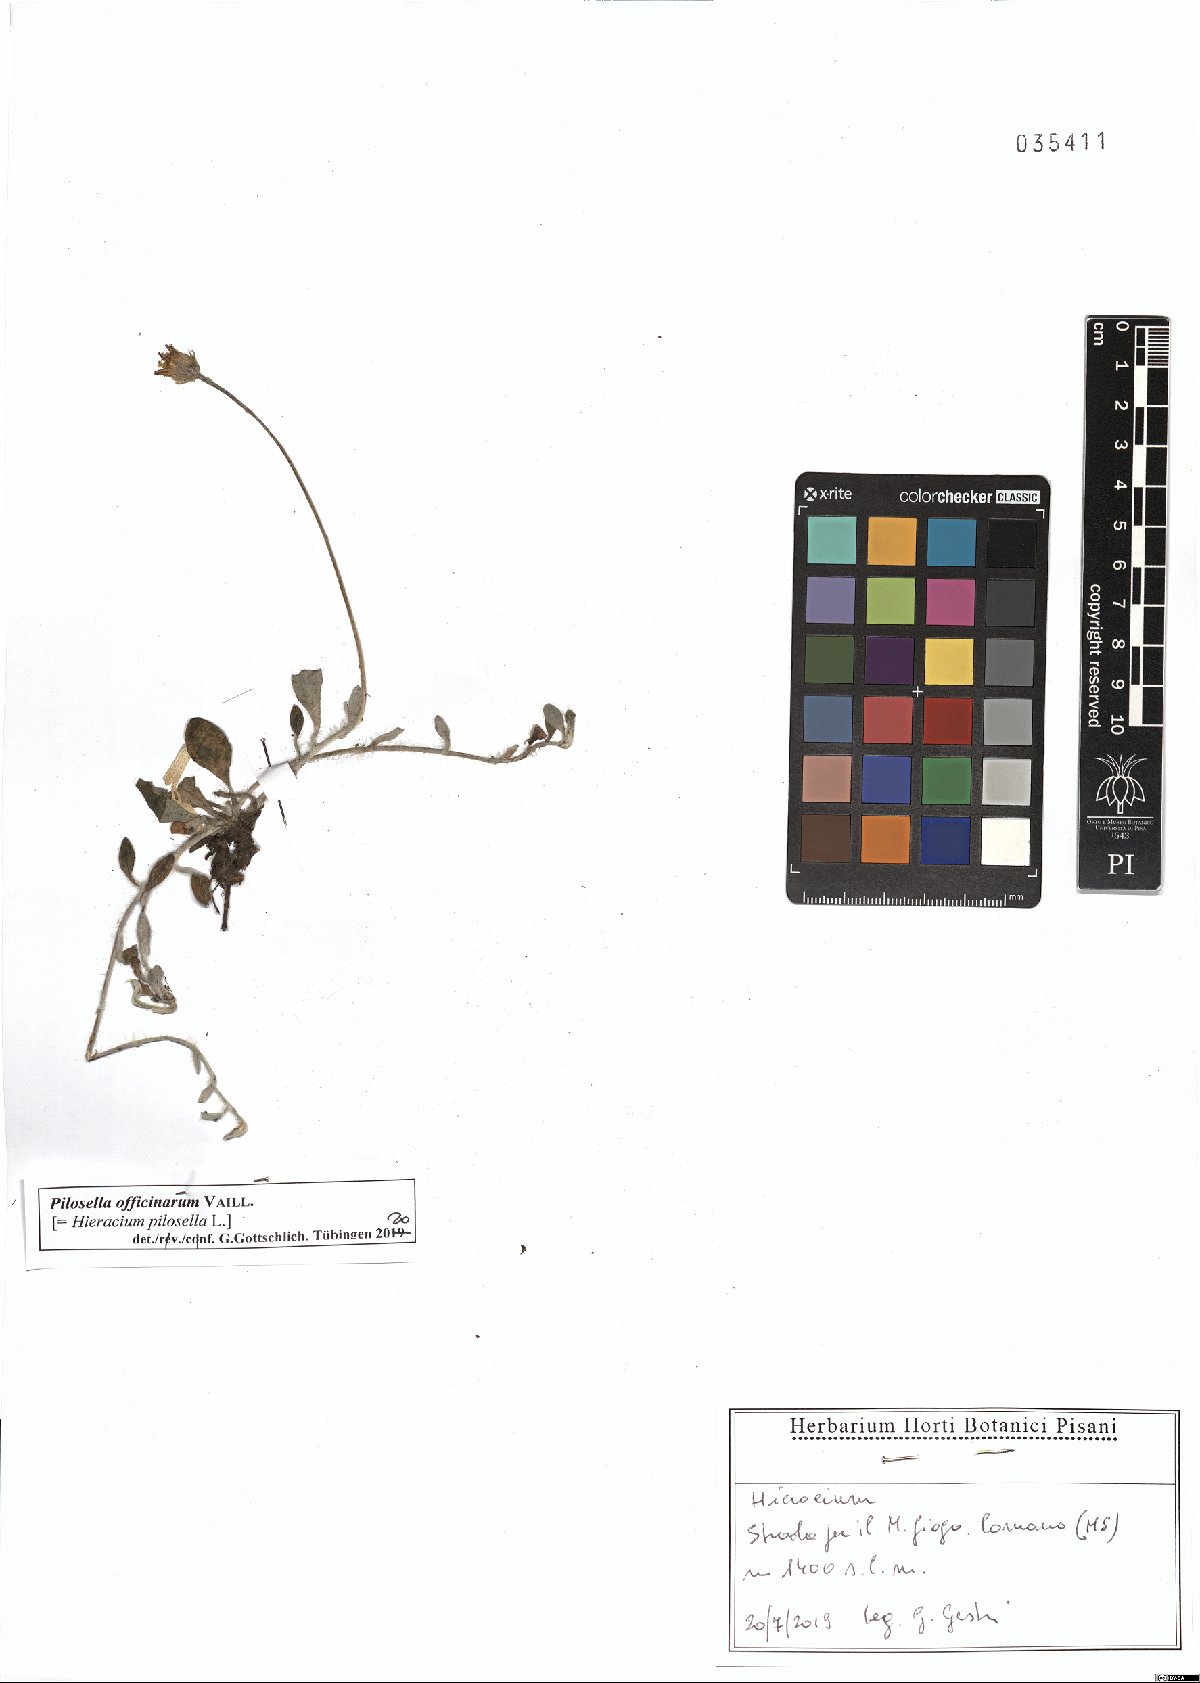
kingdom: Plantae
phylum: Tracheophyta
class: Magnoliopsida
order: Asterales
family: Asteraceae
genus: Pilosella
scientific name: Pilosella officinarum
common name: Mouse-ear hawkweed
